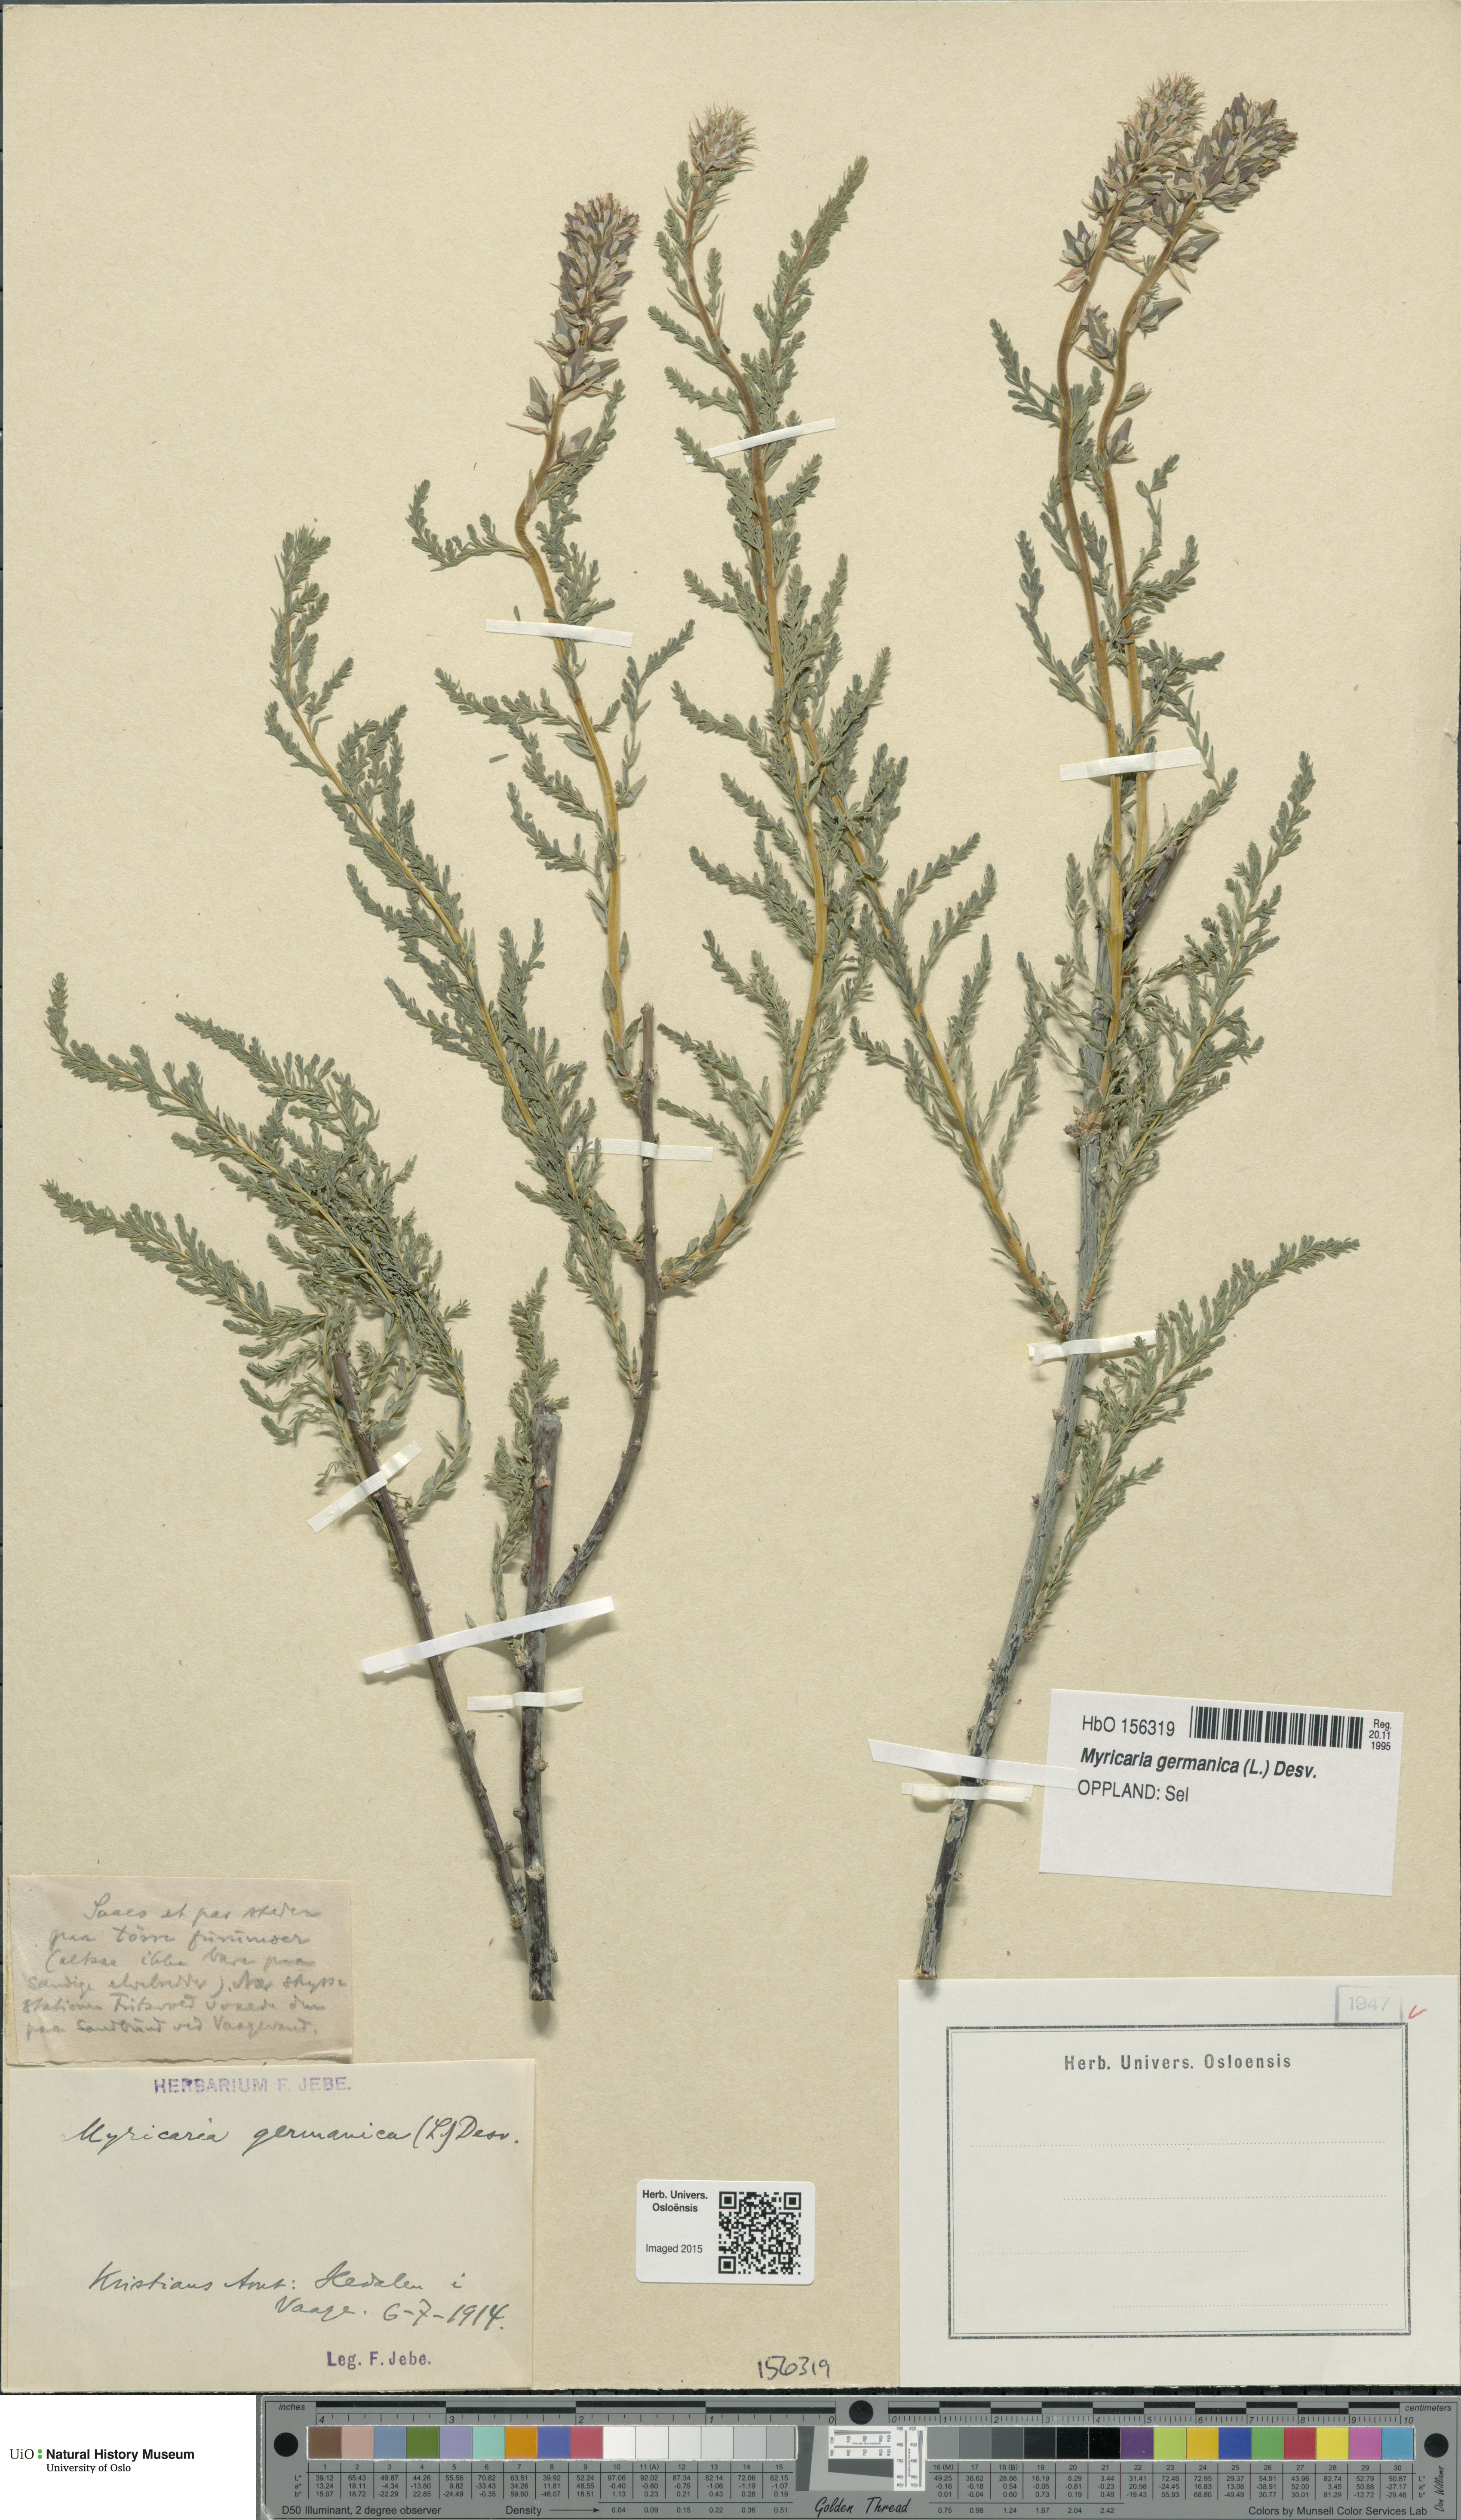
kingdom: Plantae
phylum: Tracheophyta
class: Magnoliopsida
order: Caryophyllales
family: Tamaricaceae
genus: Myricaria
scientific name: Myricaria germanica
